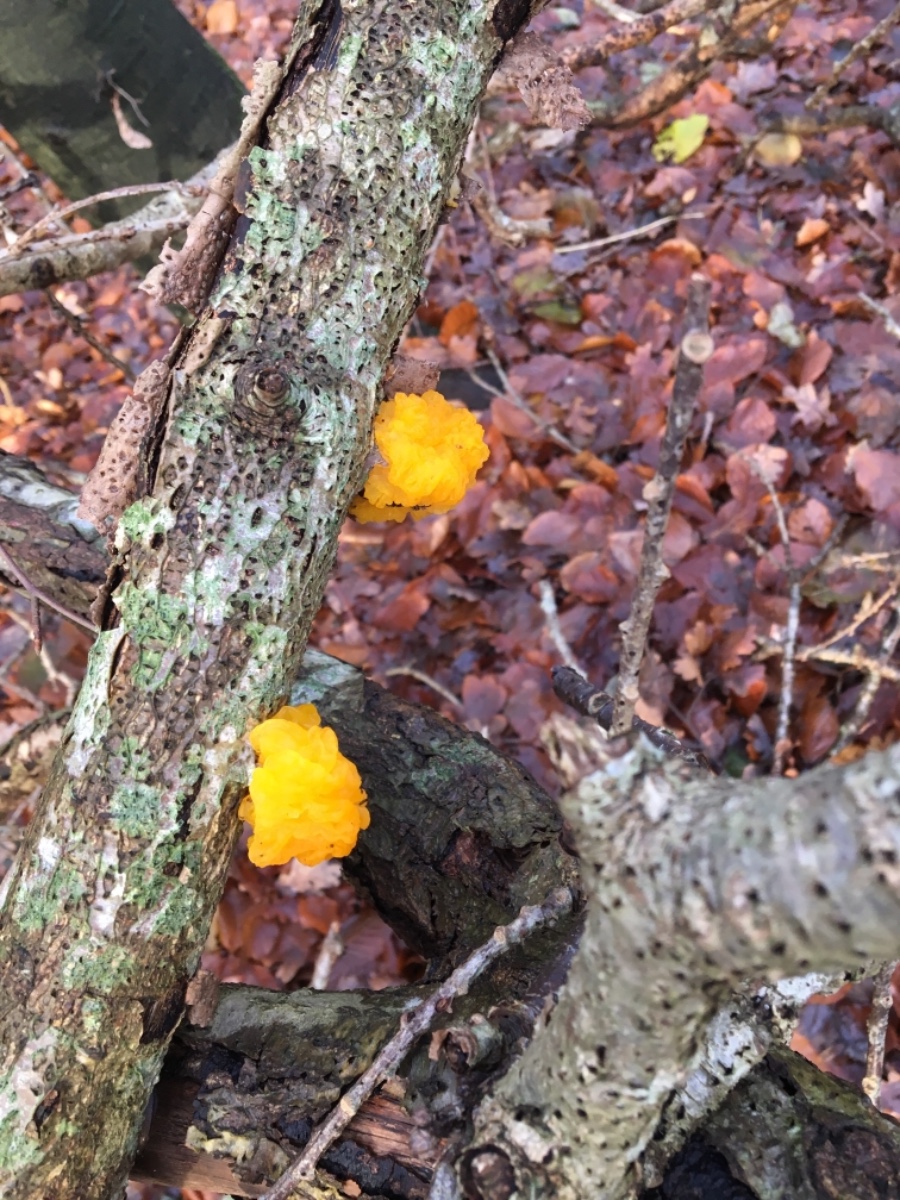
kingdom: Fungi
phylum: Basidiomycota
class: Tremellomycetes
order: Tremellales
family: Tremellaceae
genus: Tremella
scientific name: Tremella mesenterica
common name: gul bævresvamp
